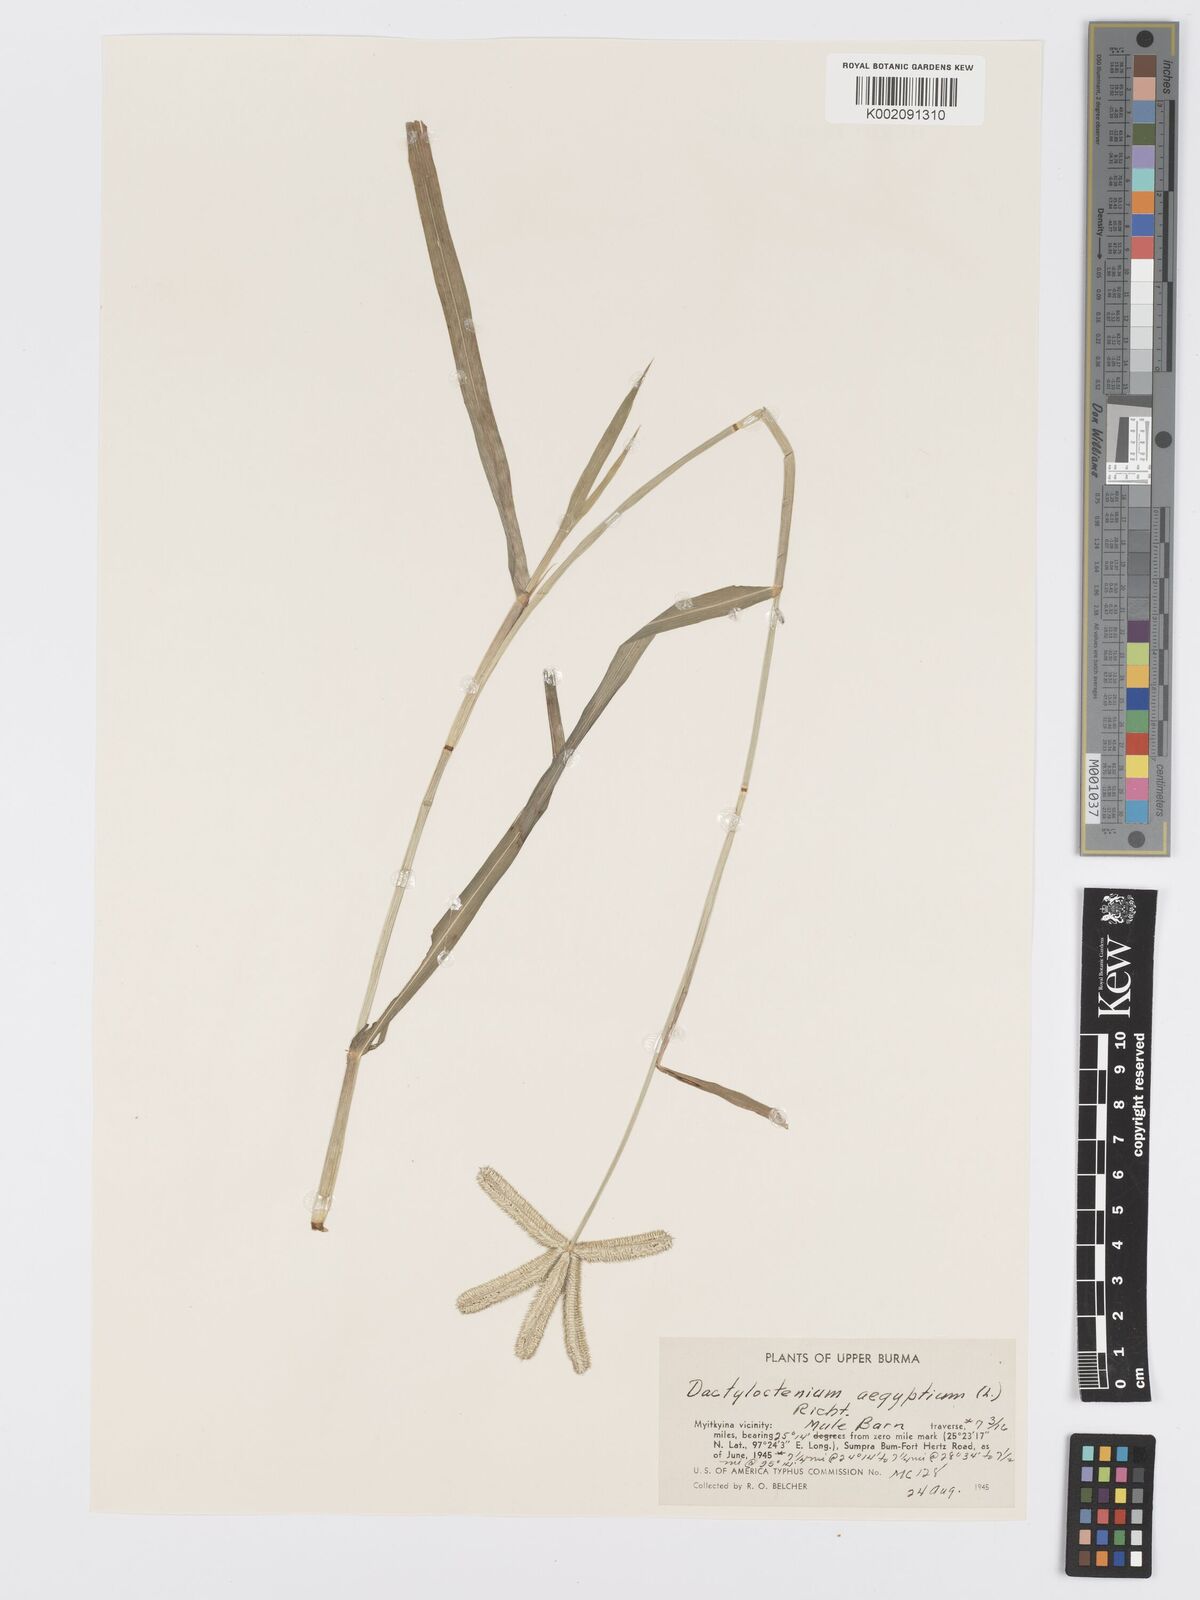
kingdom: Plantae
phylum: Tracheophyta
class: Liliopsida
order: Poales
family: Poaceae
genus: Dactyloctenium
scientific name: Dactyloctenium aegyptium
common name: Egyptian grass
